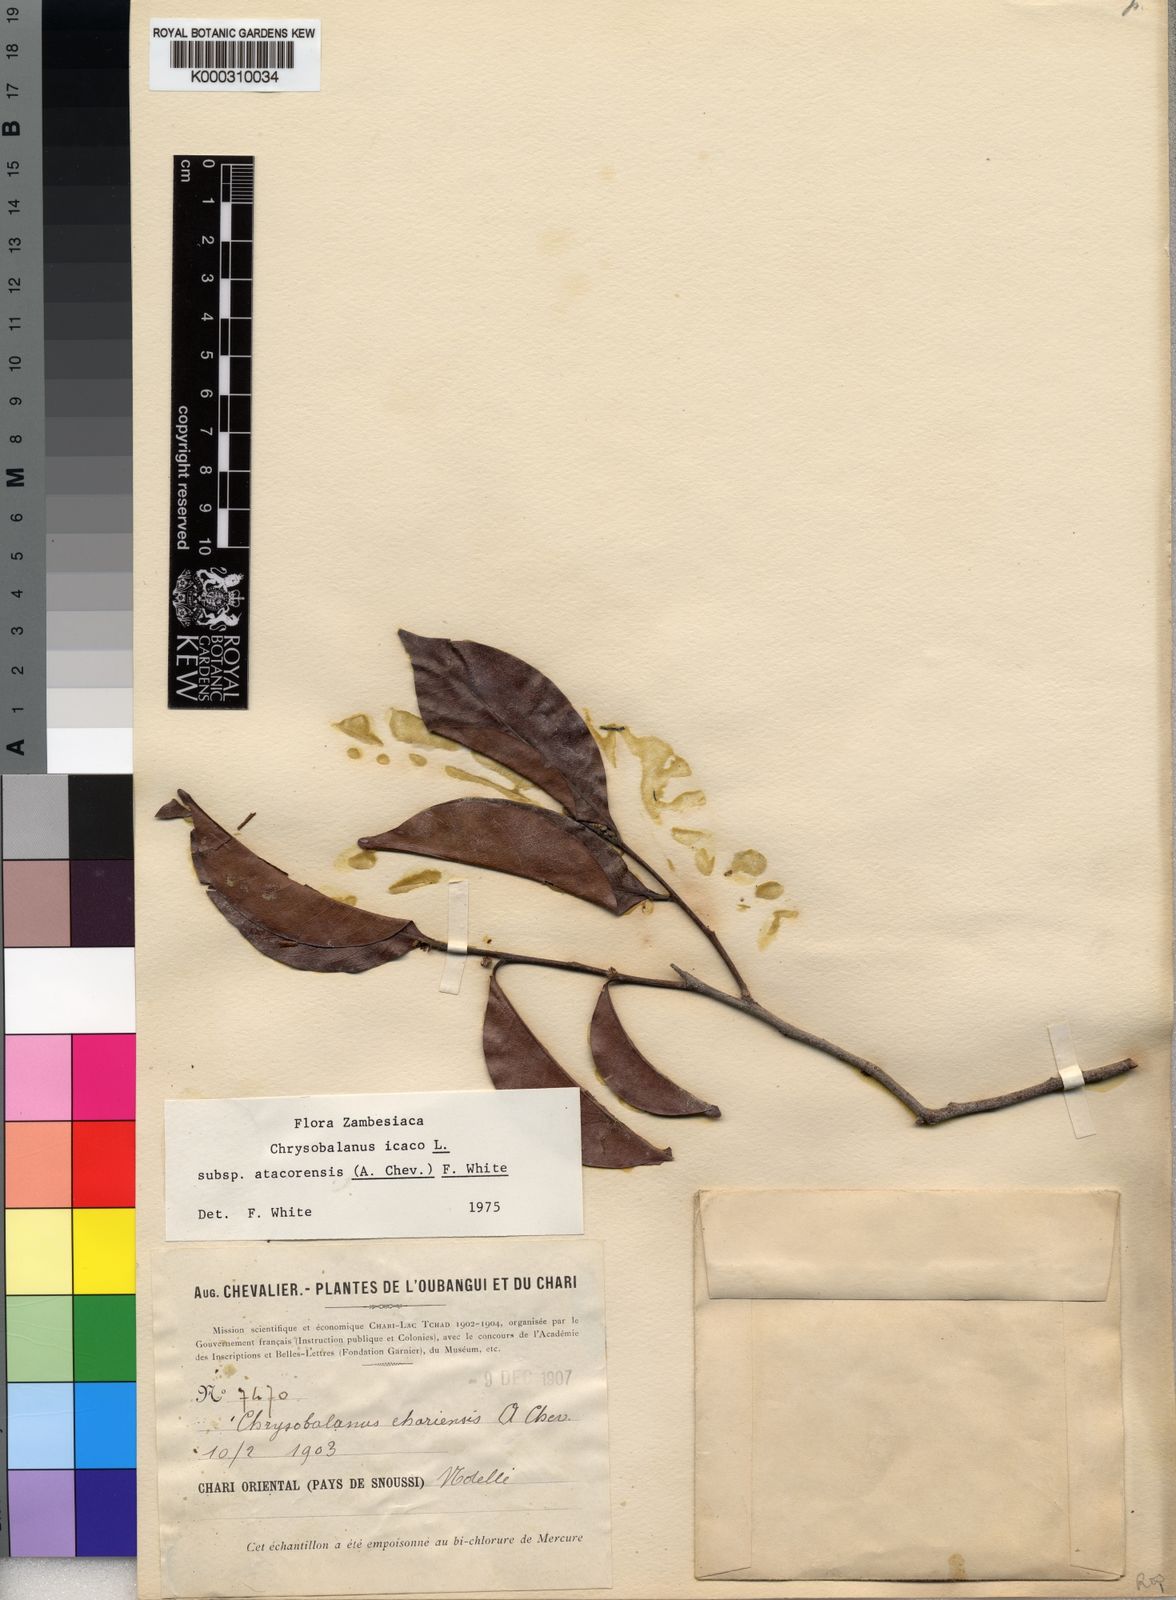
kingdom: Plantae
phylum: Tracheophyta
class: Magnoliopsida
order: Malpighiales
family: Chrysobalanaceae
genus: Chrysobalanus
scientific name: Chrysobalanus icaco
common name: Coco plum
